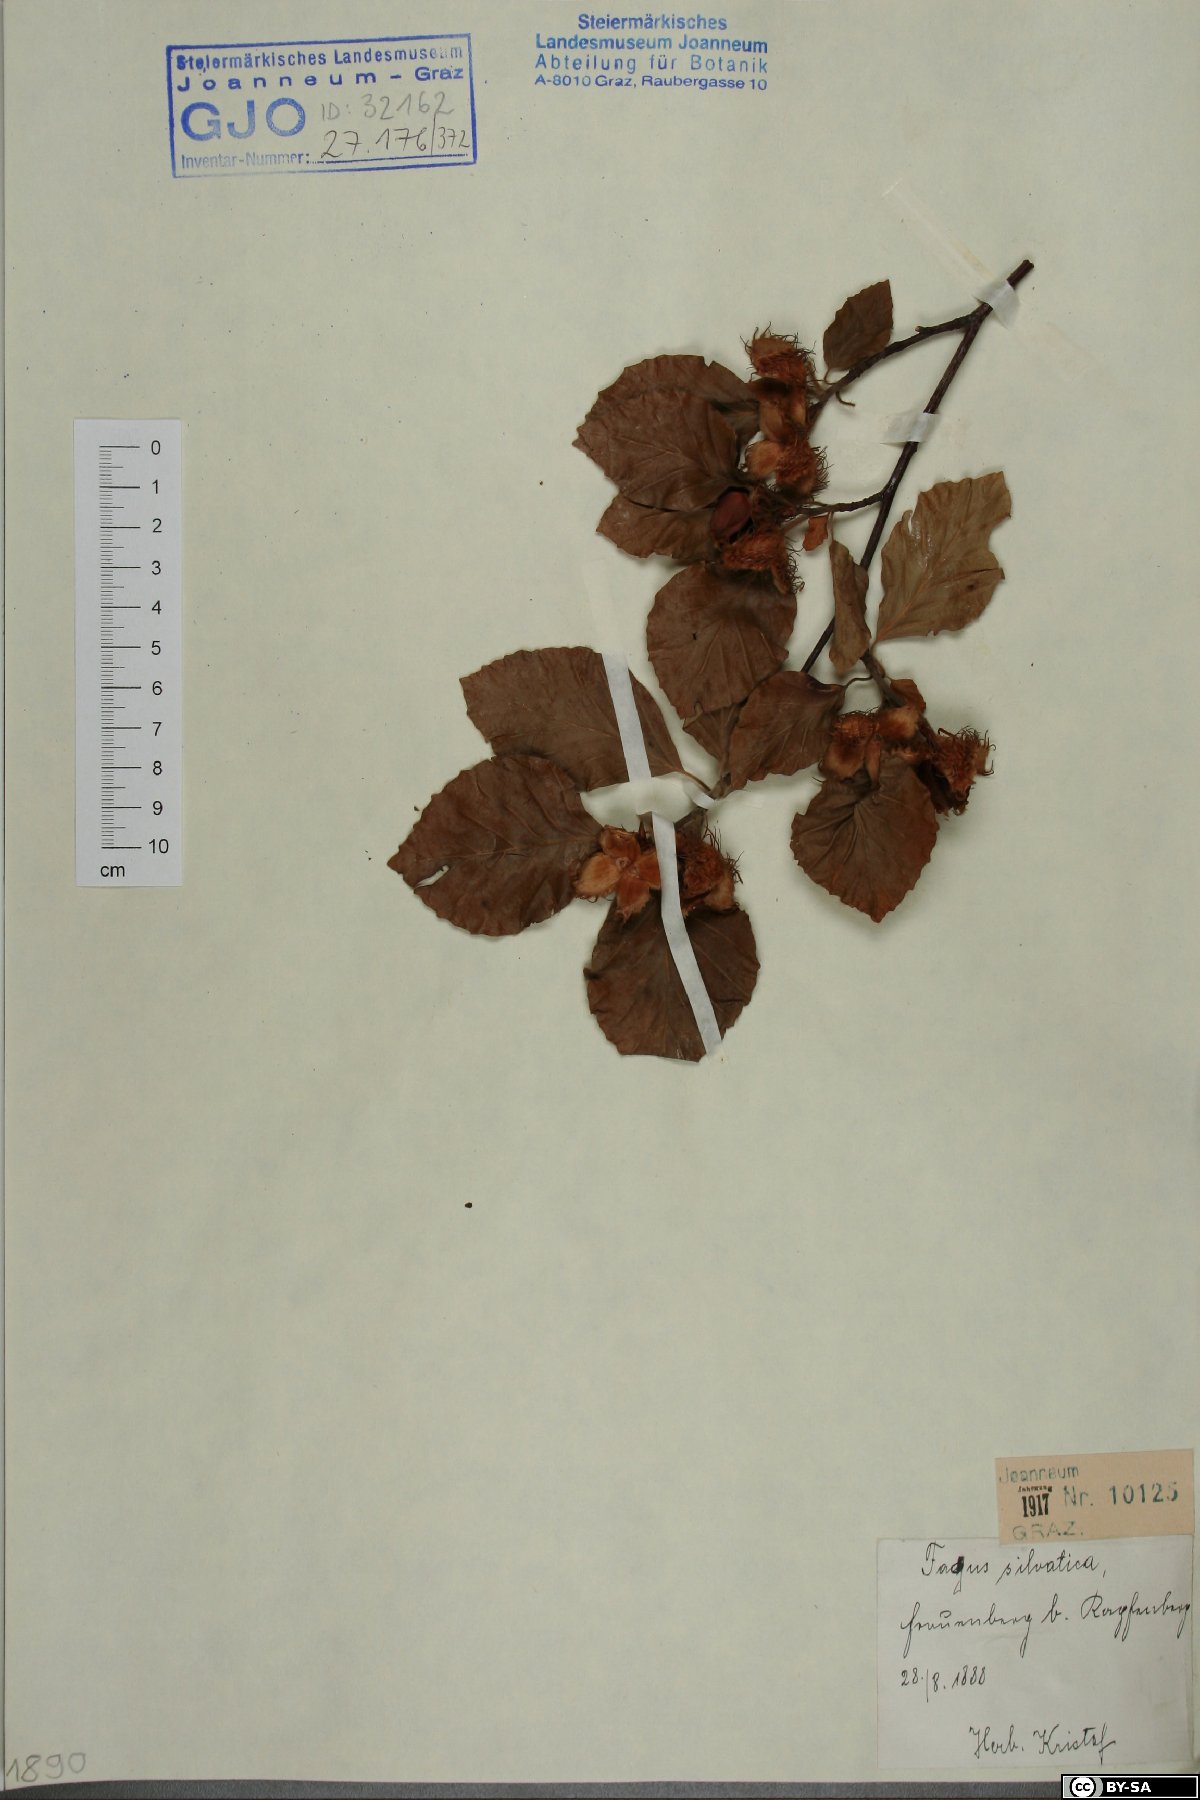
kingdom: Plantae
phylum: Tracheophyta
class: Magnoliopsida
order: Fagales
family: Fagaceae
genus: Fagus
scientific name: Fagus sylvatica
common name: Beech
